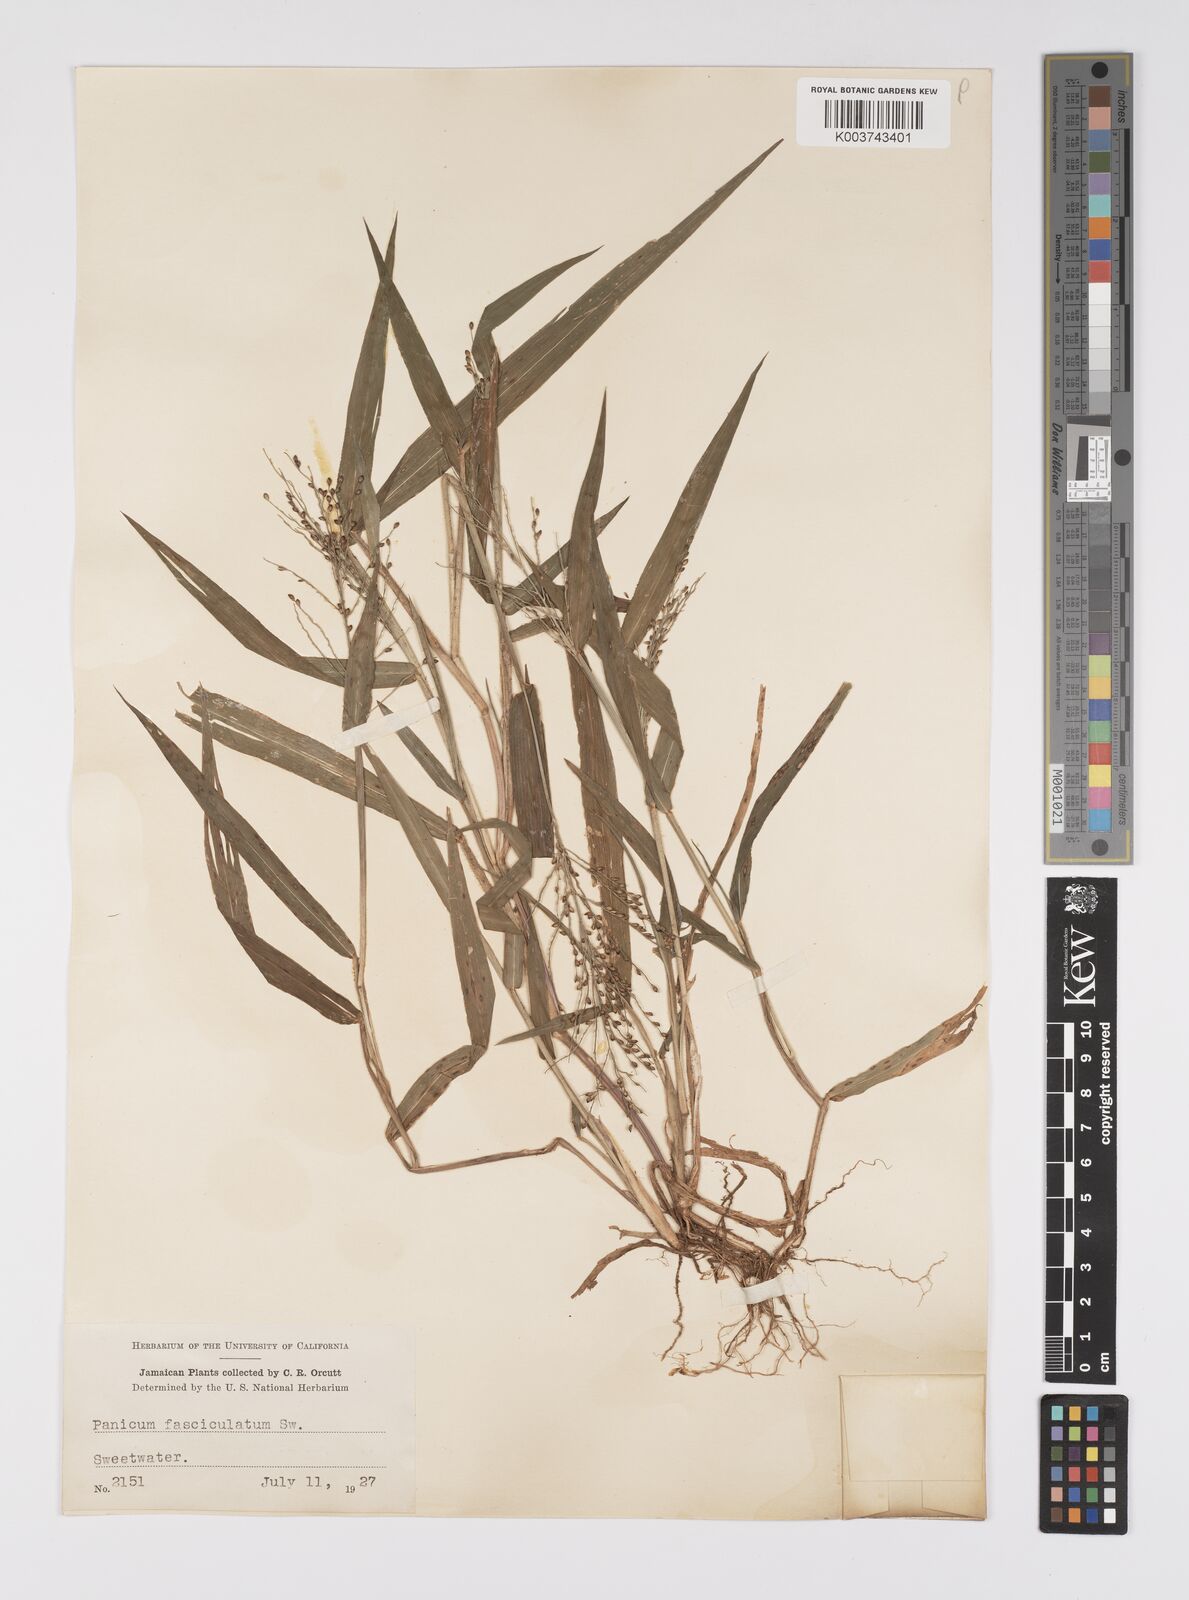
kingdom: Plantae
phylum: Tracheophyta
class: Liliopsida
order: Poales
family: Poaceae
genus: Urochloa
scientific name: Urochloa fusca
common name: Browntop signal grass
